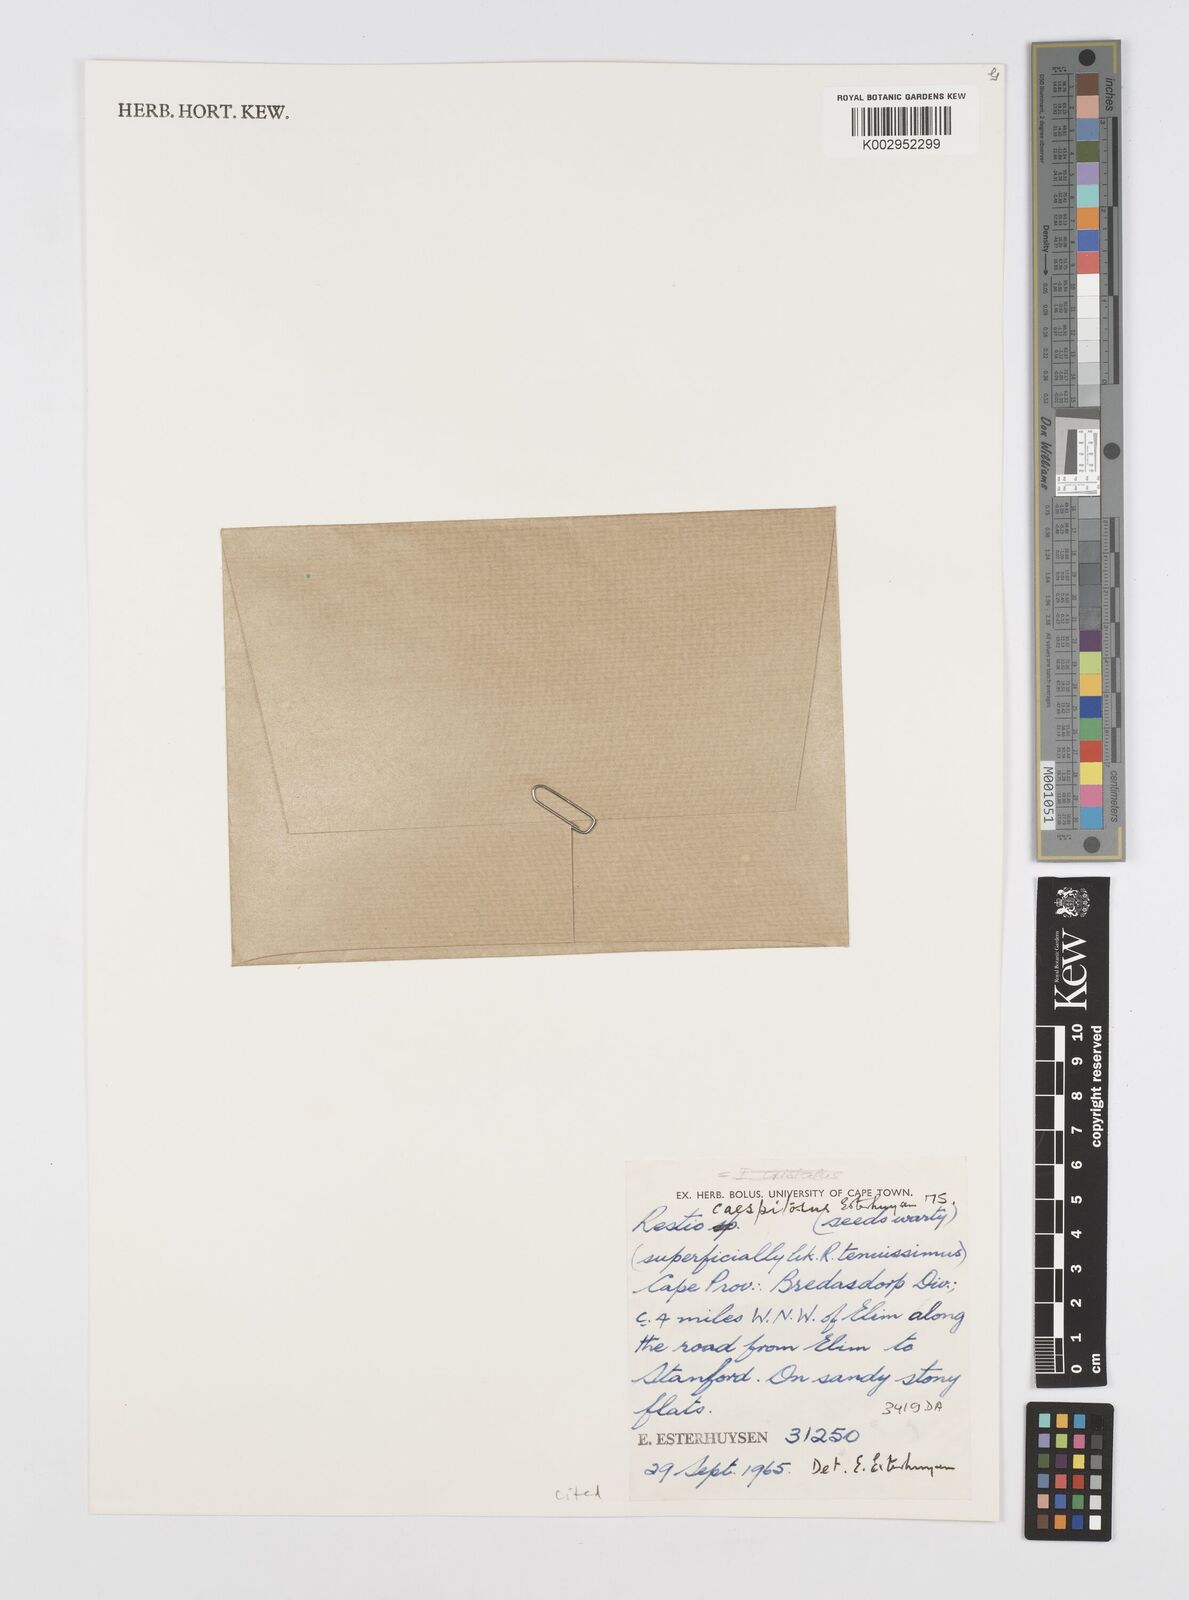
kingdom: Plantae
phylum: Tracheophyta
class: Liliopsida
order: Poales
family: Restionaceae
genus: Restio
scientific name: Restio caespitosus
